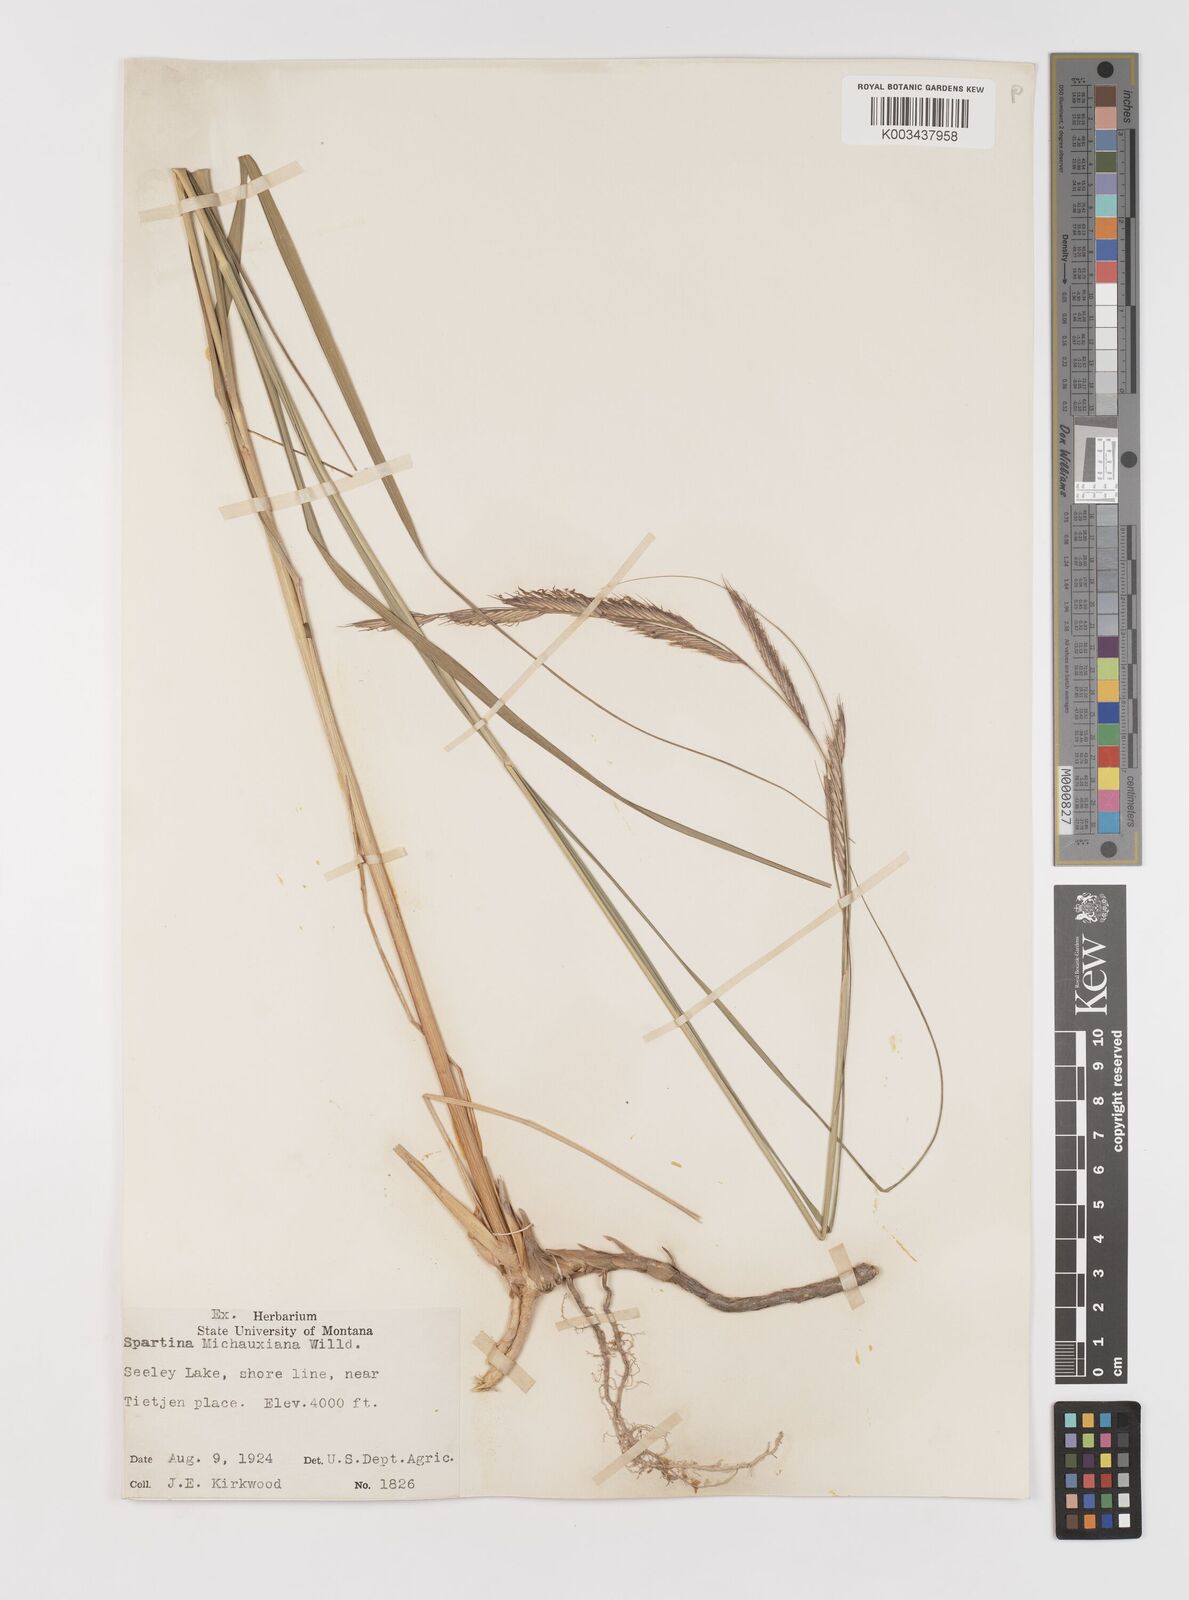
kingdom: Plantae
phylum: Tracheophyta
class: Liliopsida
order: Poales
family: Poaceae
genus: Sporobolus
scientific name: Sporobolus michauxianus
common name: Freshwater cordgrass
